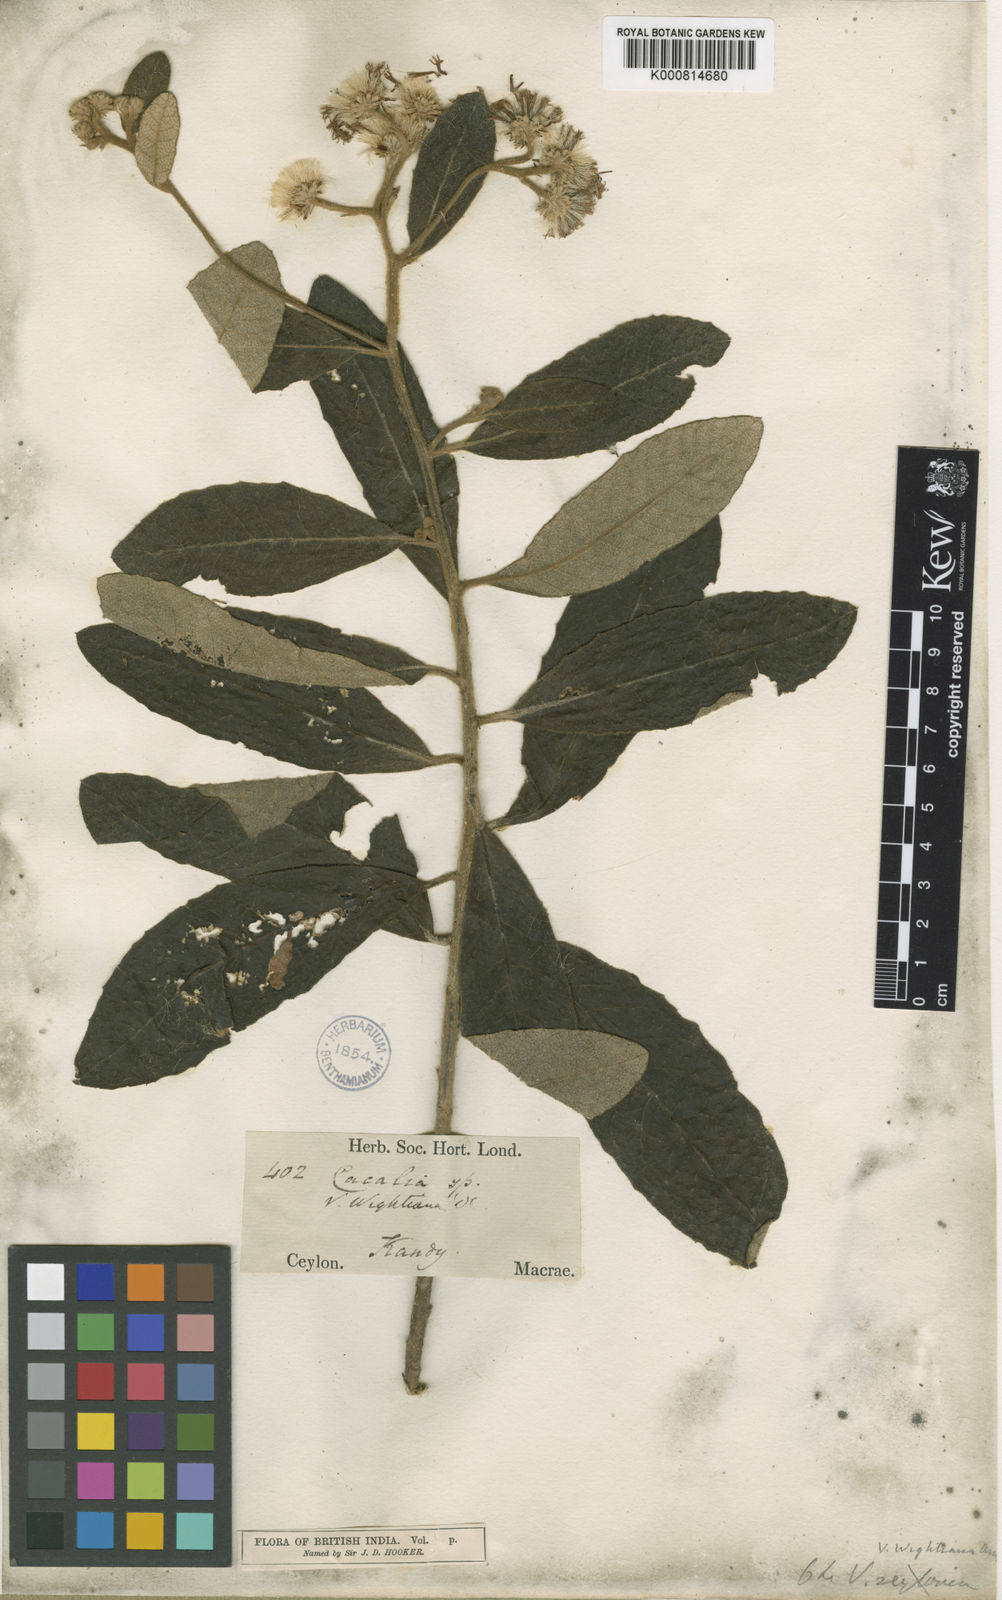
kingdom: Plantae
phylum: Tracheophyta
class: Magnoliopsida
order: Asterales
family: Asteraceae
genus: Vernonia
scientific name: Vernonia
